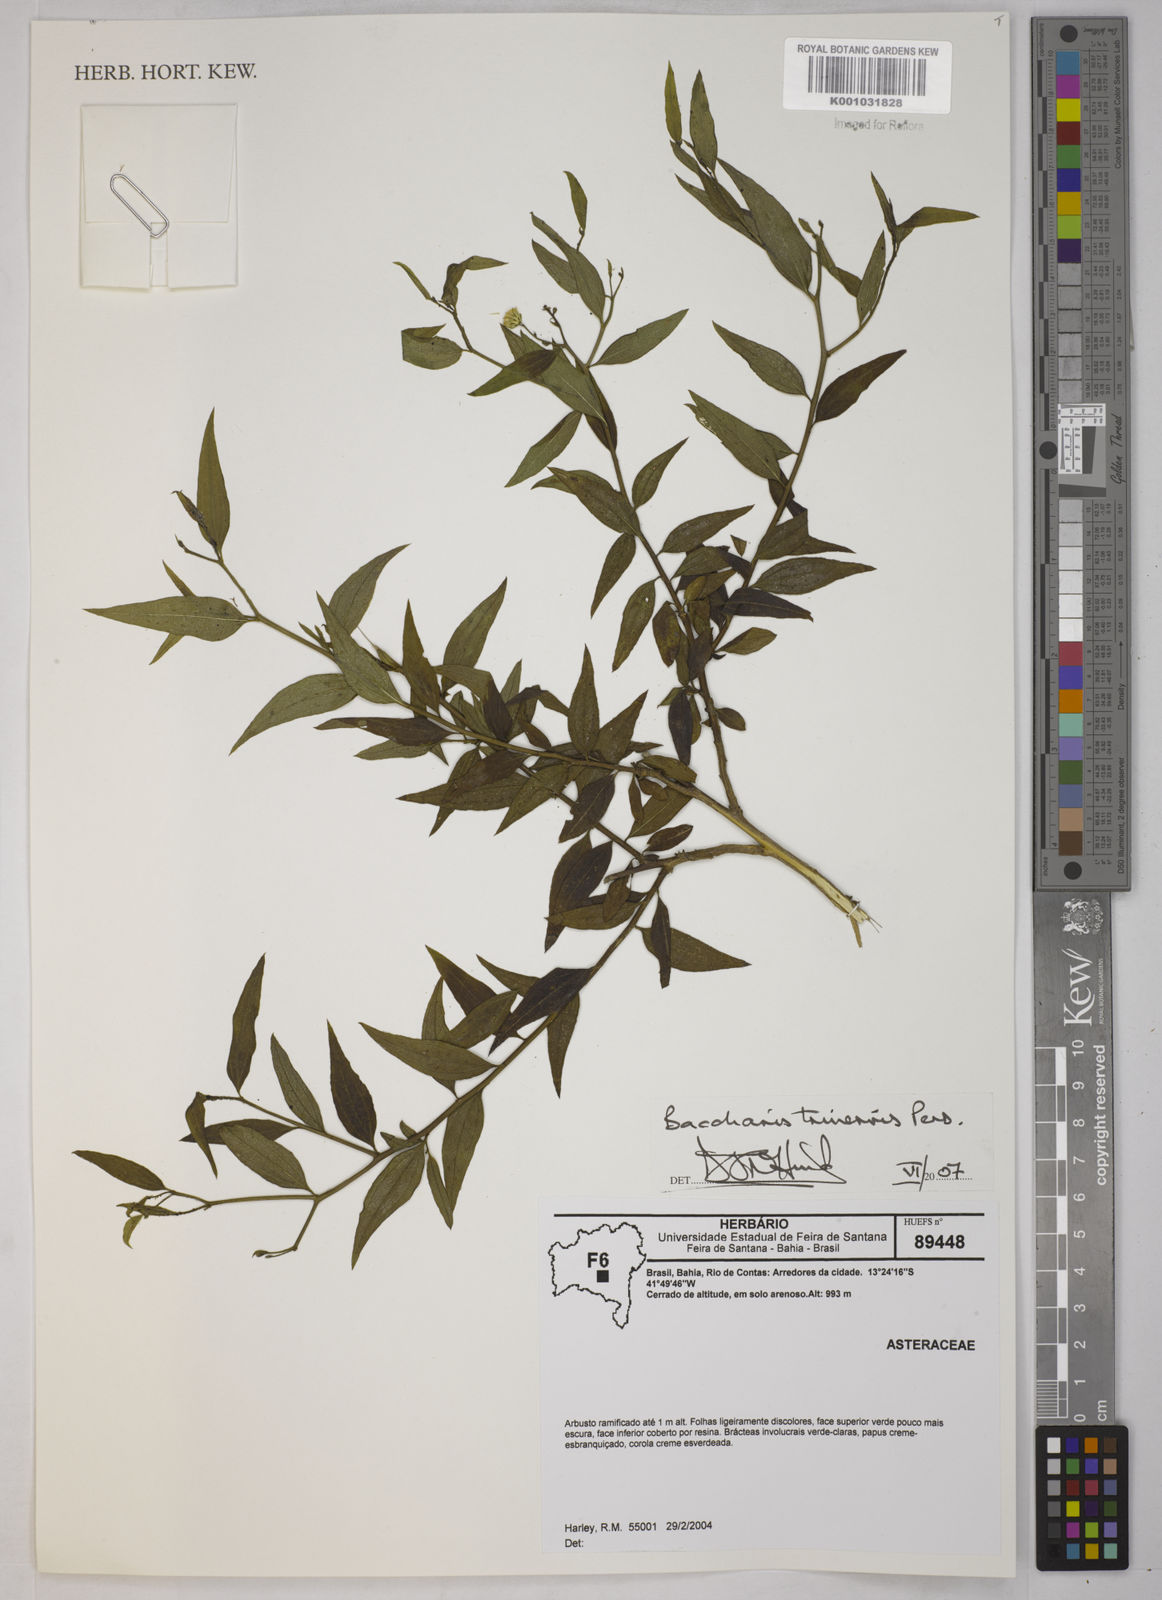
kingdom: Plantae
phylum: Tracheophyta
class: Magnoliopsida
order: Asterales
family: Asteraceae
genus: Baccharis
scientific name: Baccharis trinervis
